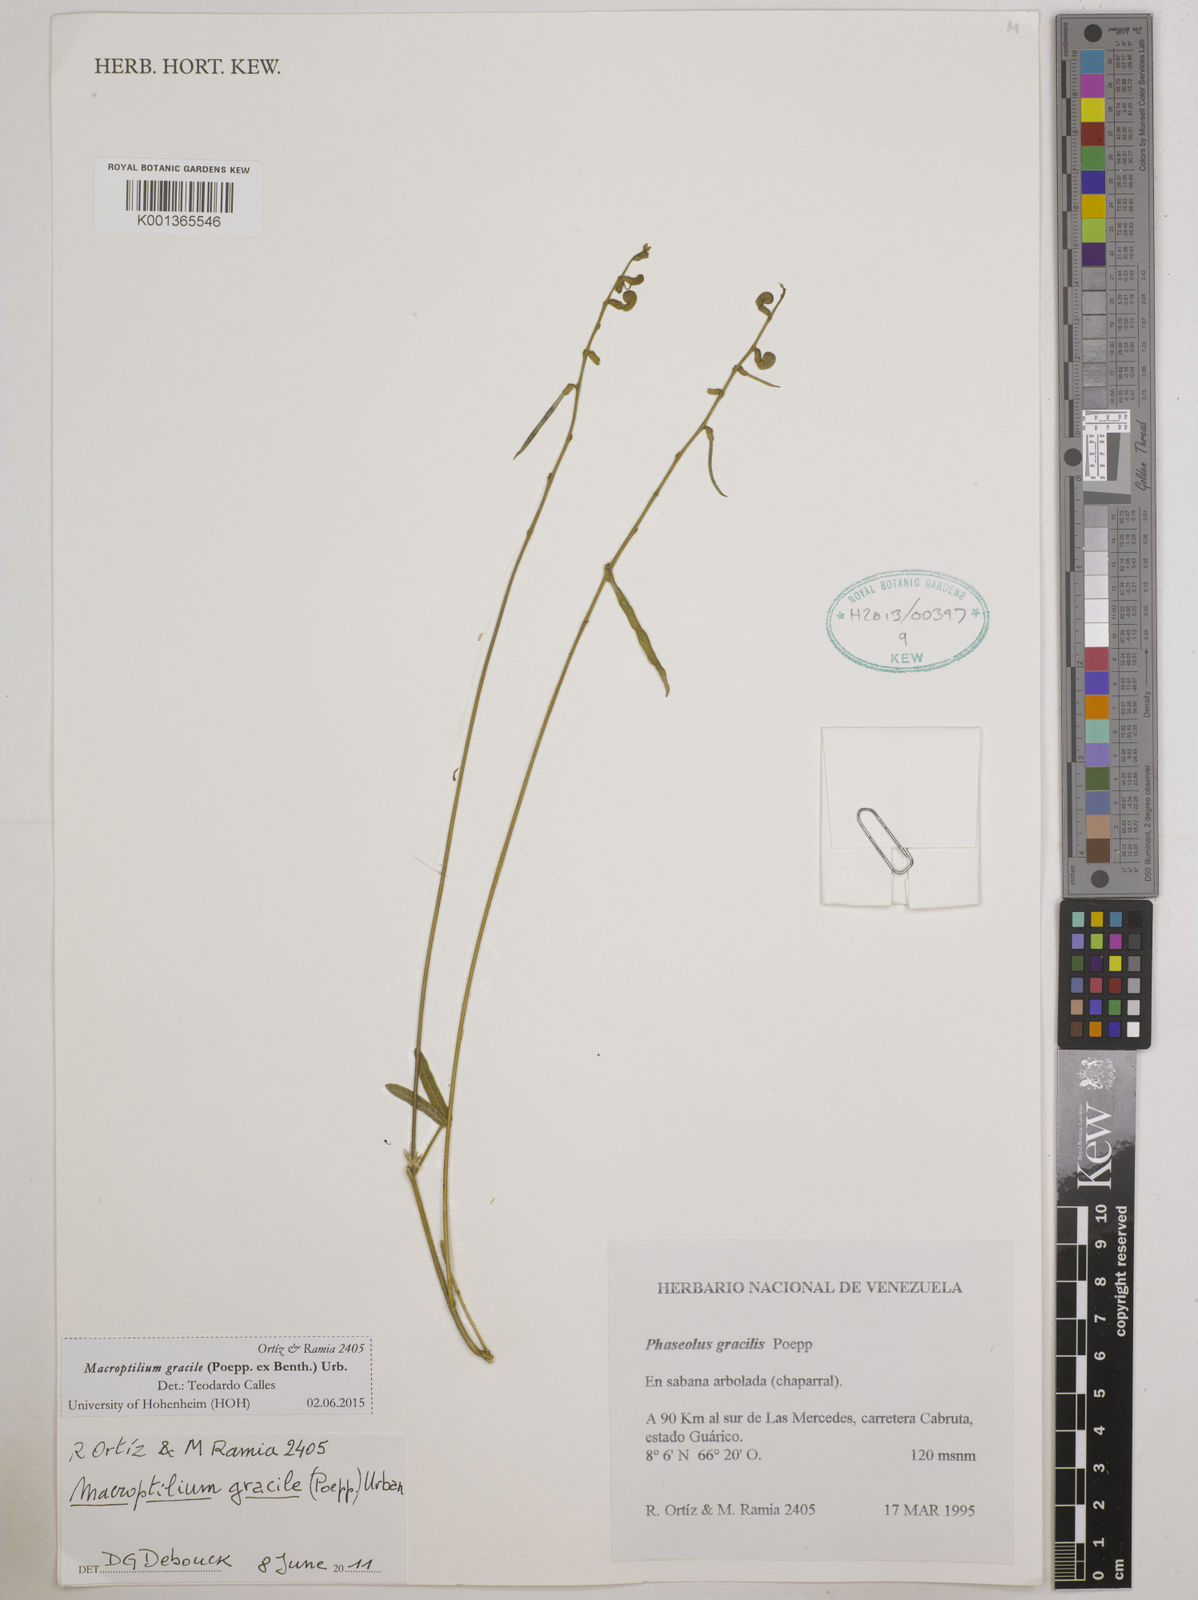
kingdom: Plantae
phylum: Tracheophyta
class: Magnoliopsida
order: Fabales
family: Fabaceae
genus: Macroptilium
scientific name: Macroptilium gracile
